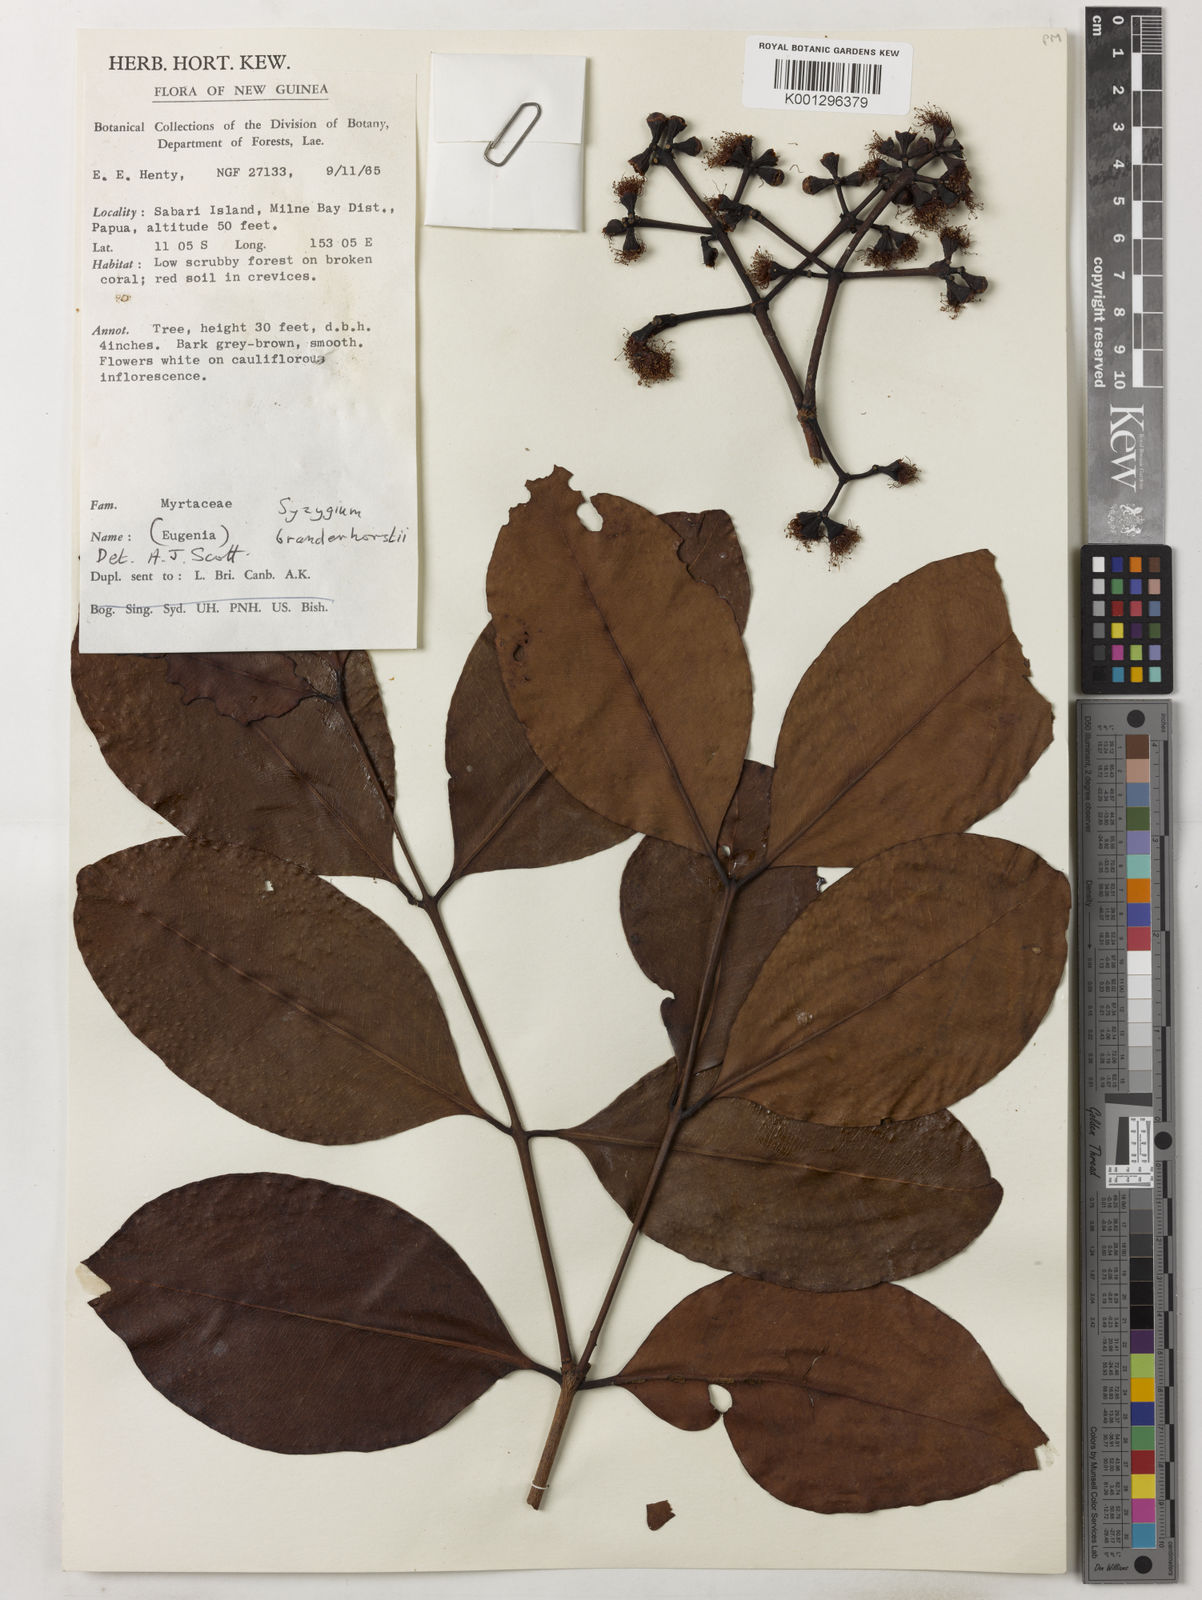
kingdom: Plantae
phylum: Tracheophyta
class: Magnoliopsida
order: Myrtales
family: Myrtaceae
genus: Syzygium
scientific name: Syzygium branderhorstii
